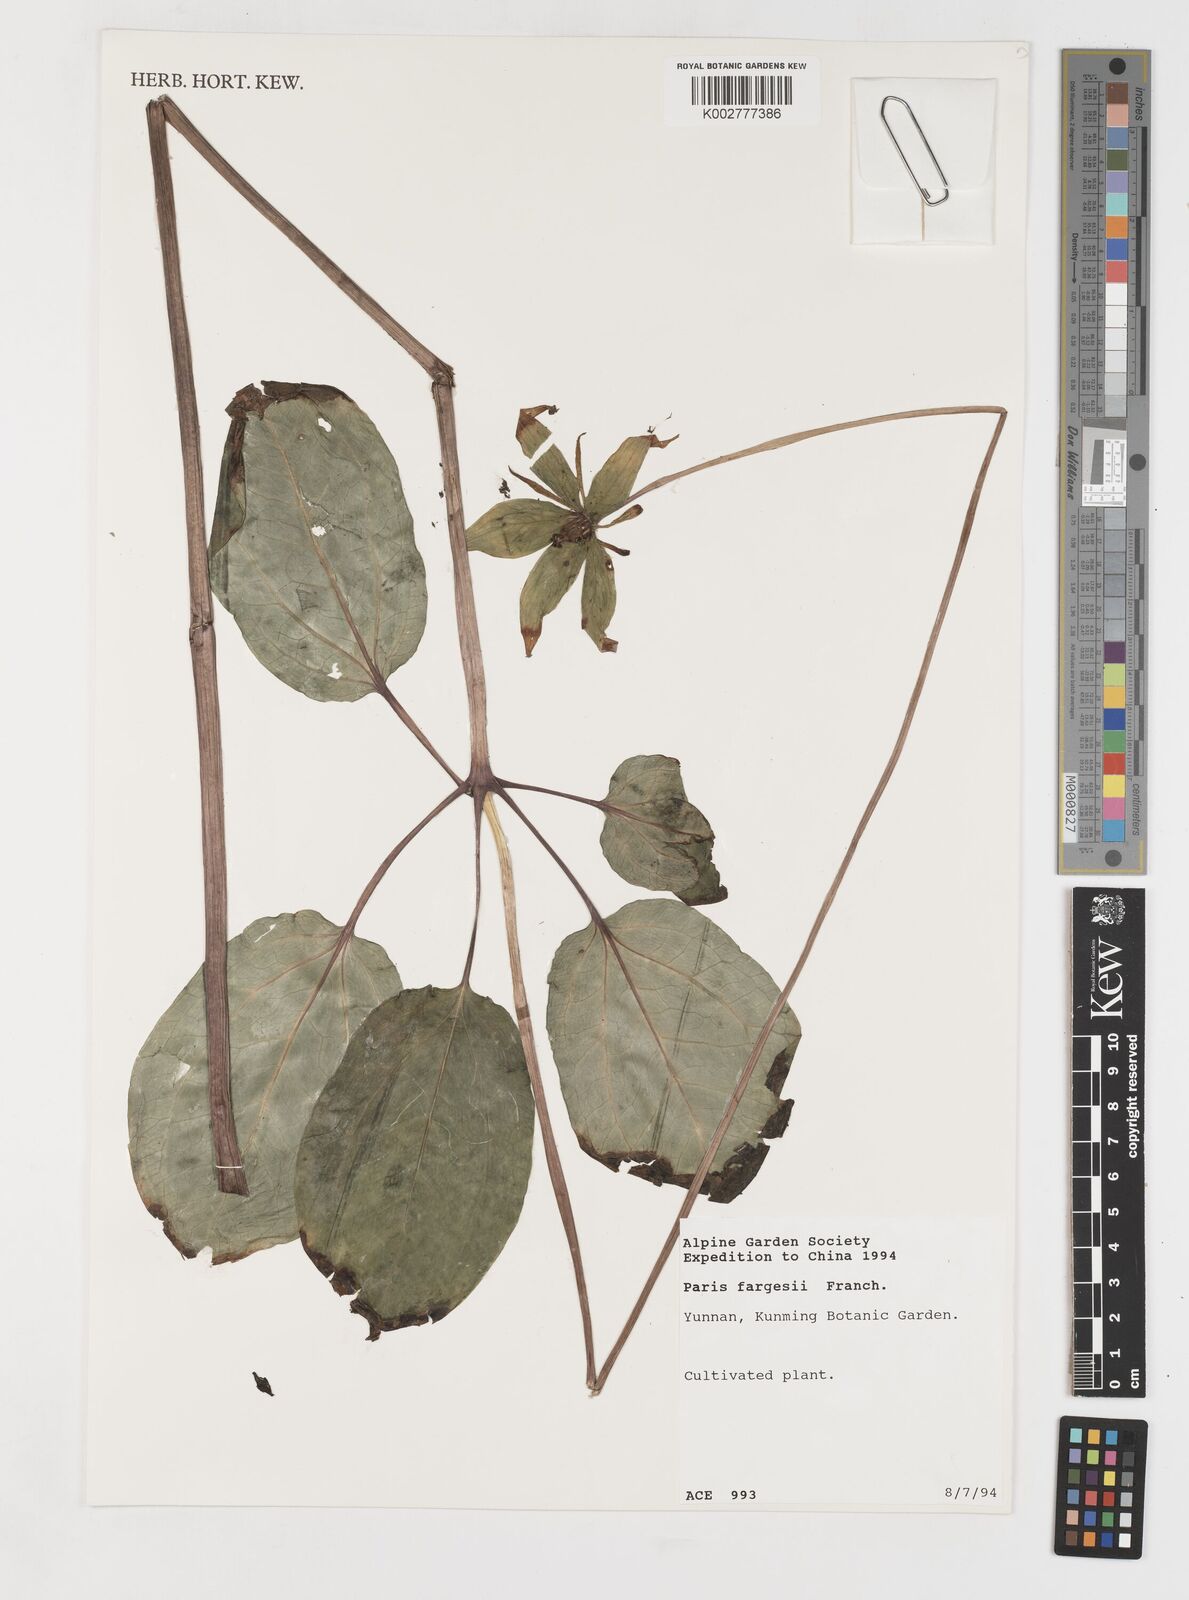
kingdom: Plantae
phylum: Tracheophyta
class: Liliopsida
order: Liliales
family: Melanthiaceae
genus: Paris
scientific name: Paris
